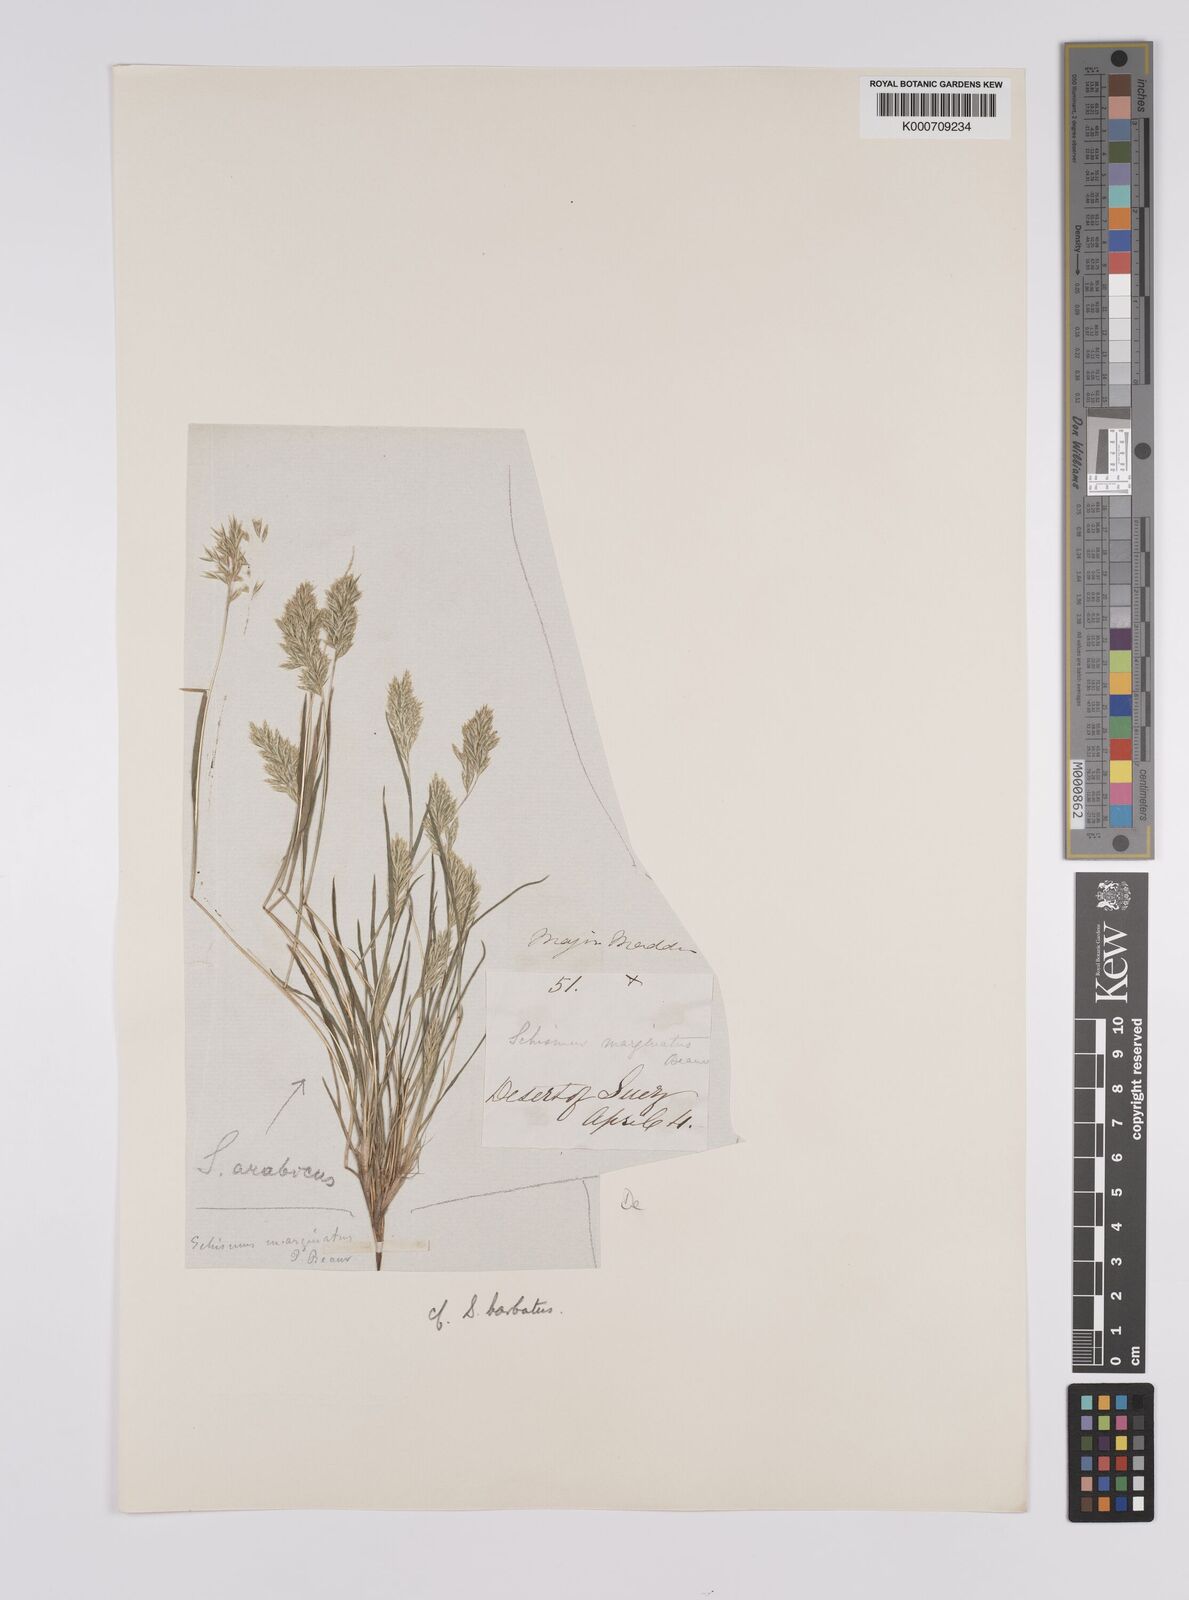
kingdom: Plantae
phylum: Tracheophyta
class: Liliopsida
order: Poales
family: Poaceae
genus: Schismus
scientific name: Schismus barbatus
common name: Kelch-grass
